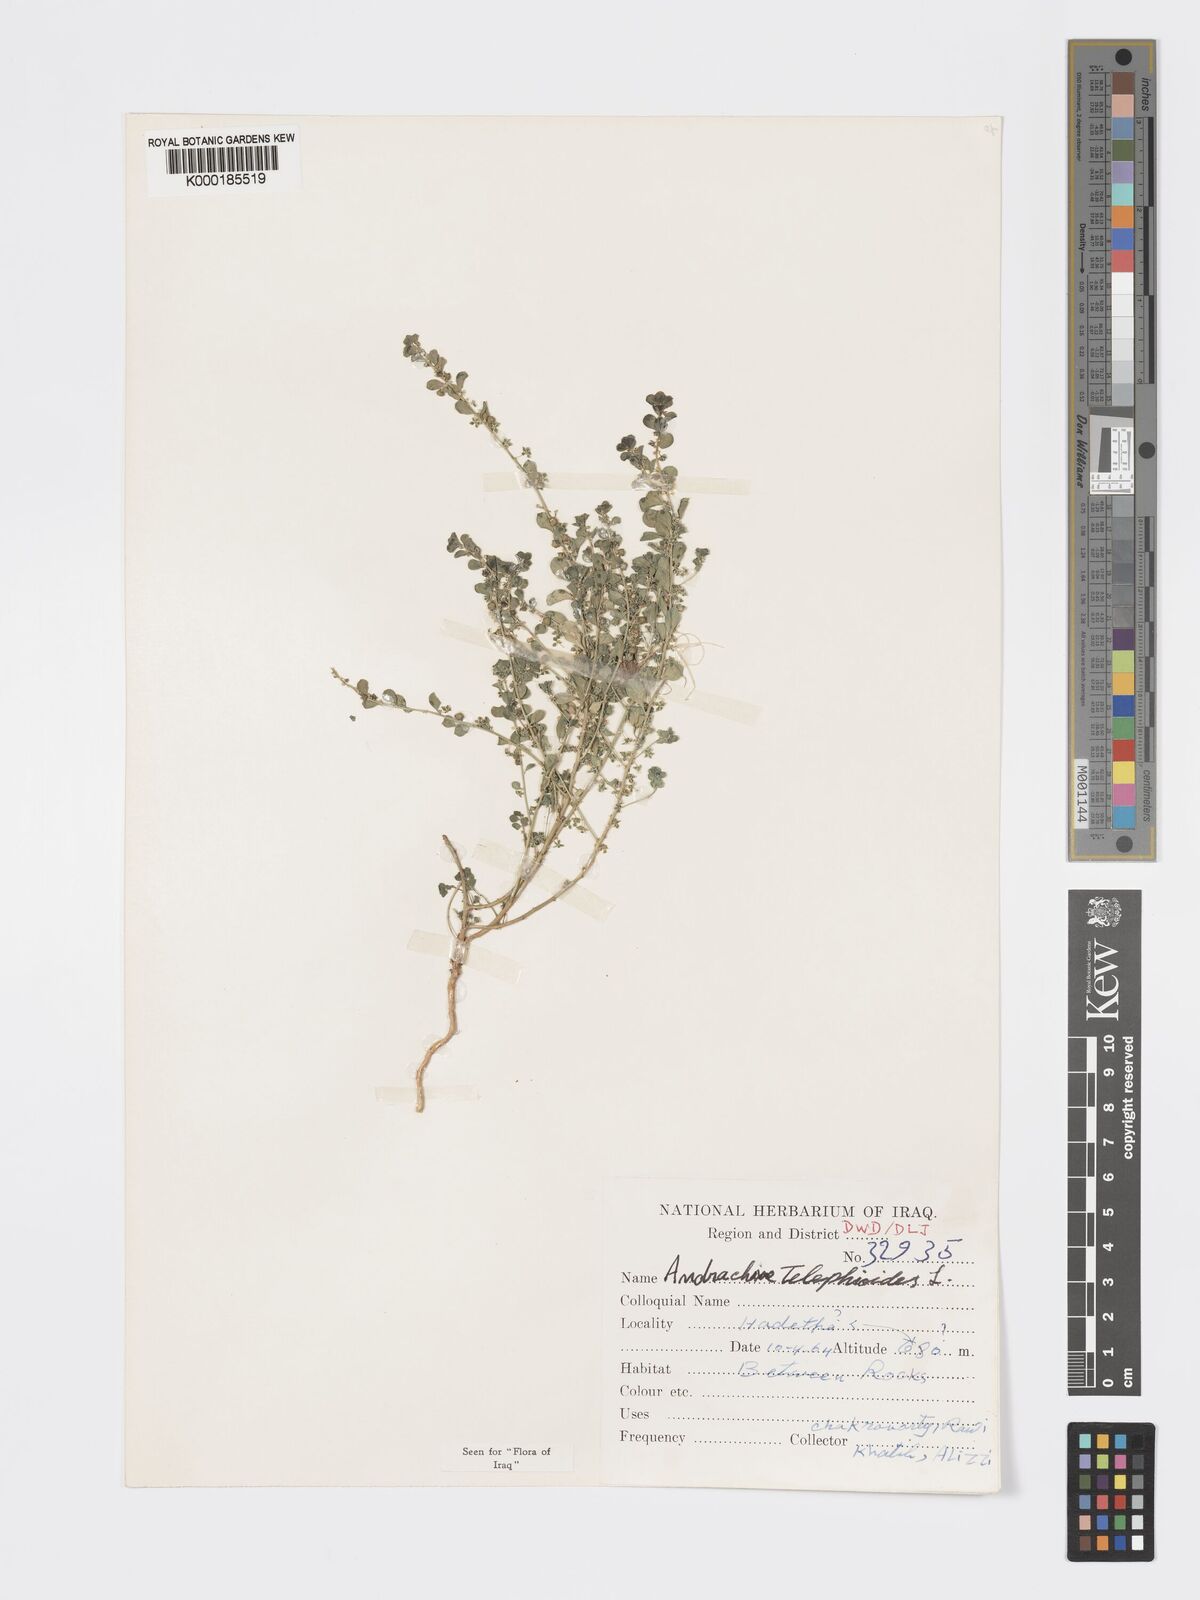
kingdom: Plantae
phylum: Tracheophyta
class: Magnoliopsida
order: Malpighiales
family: Phyllanthaceae
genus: Andrachne
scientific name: Andrachne telephioides
